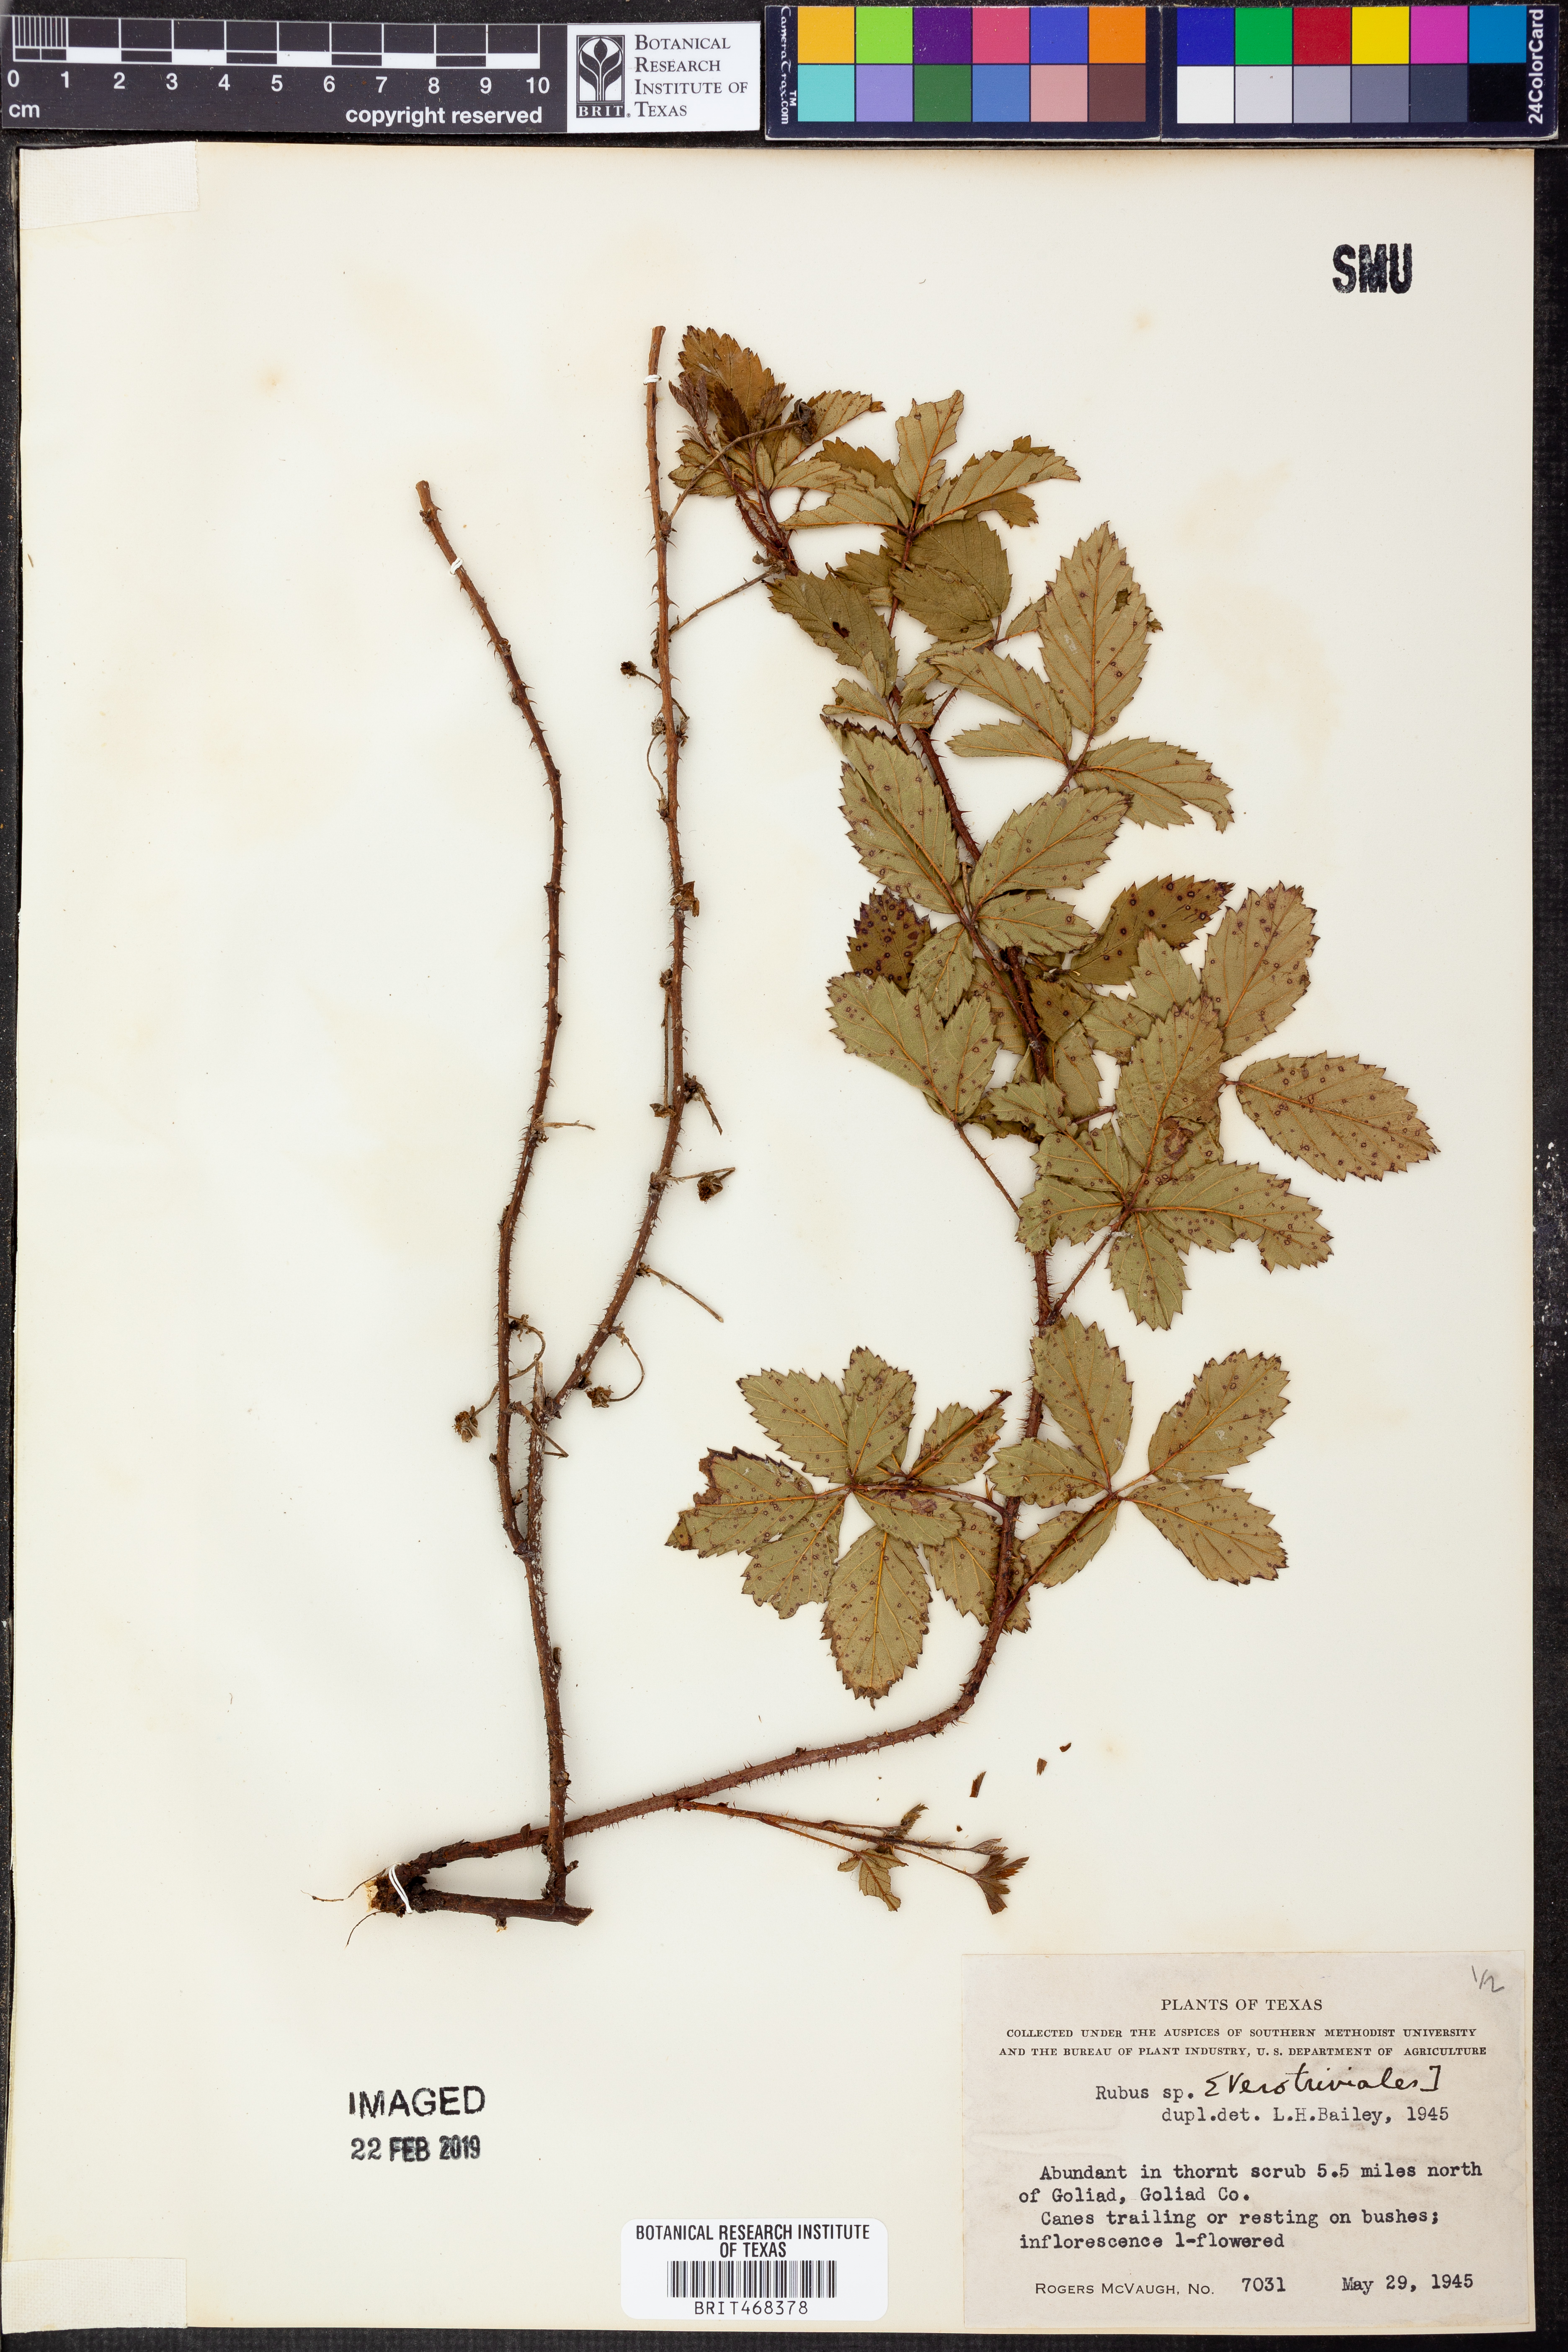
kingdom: Plantae
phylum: Tracheophyta
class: Magnoliopsida
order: Rosales
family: Rosaceae
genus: Rubus
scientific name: Rubus
